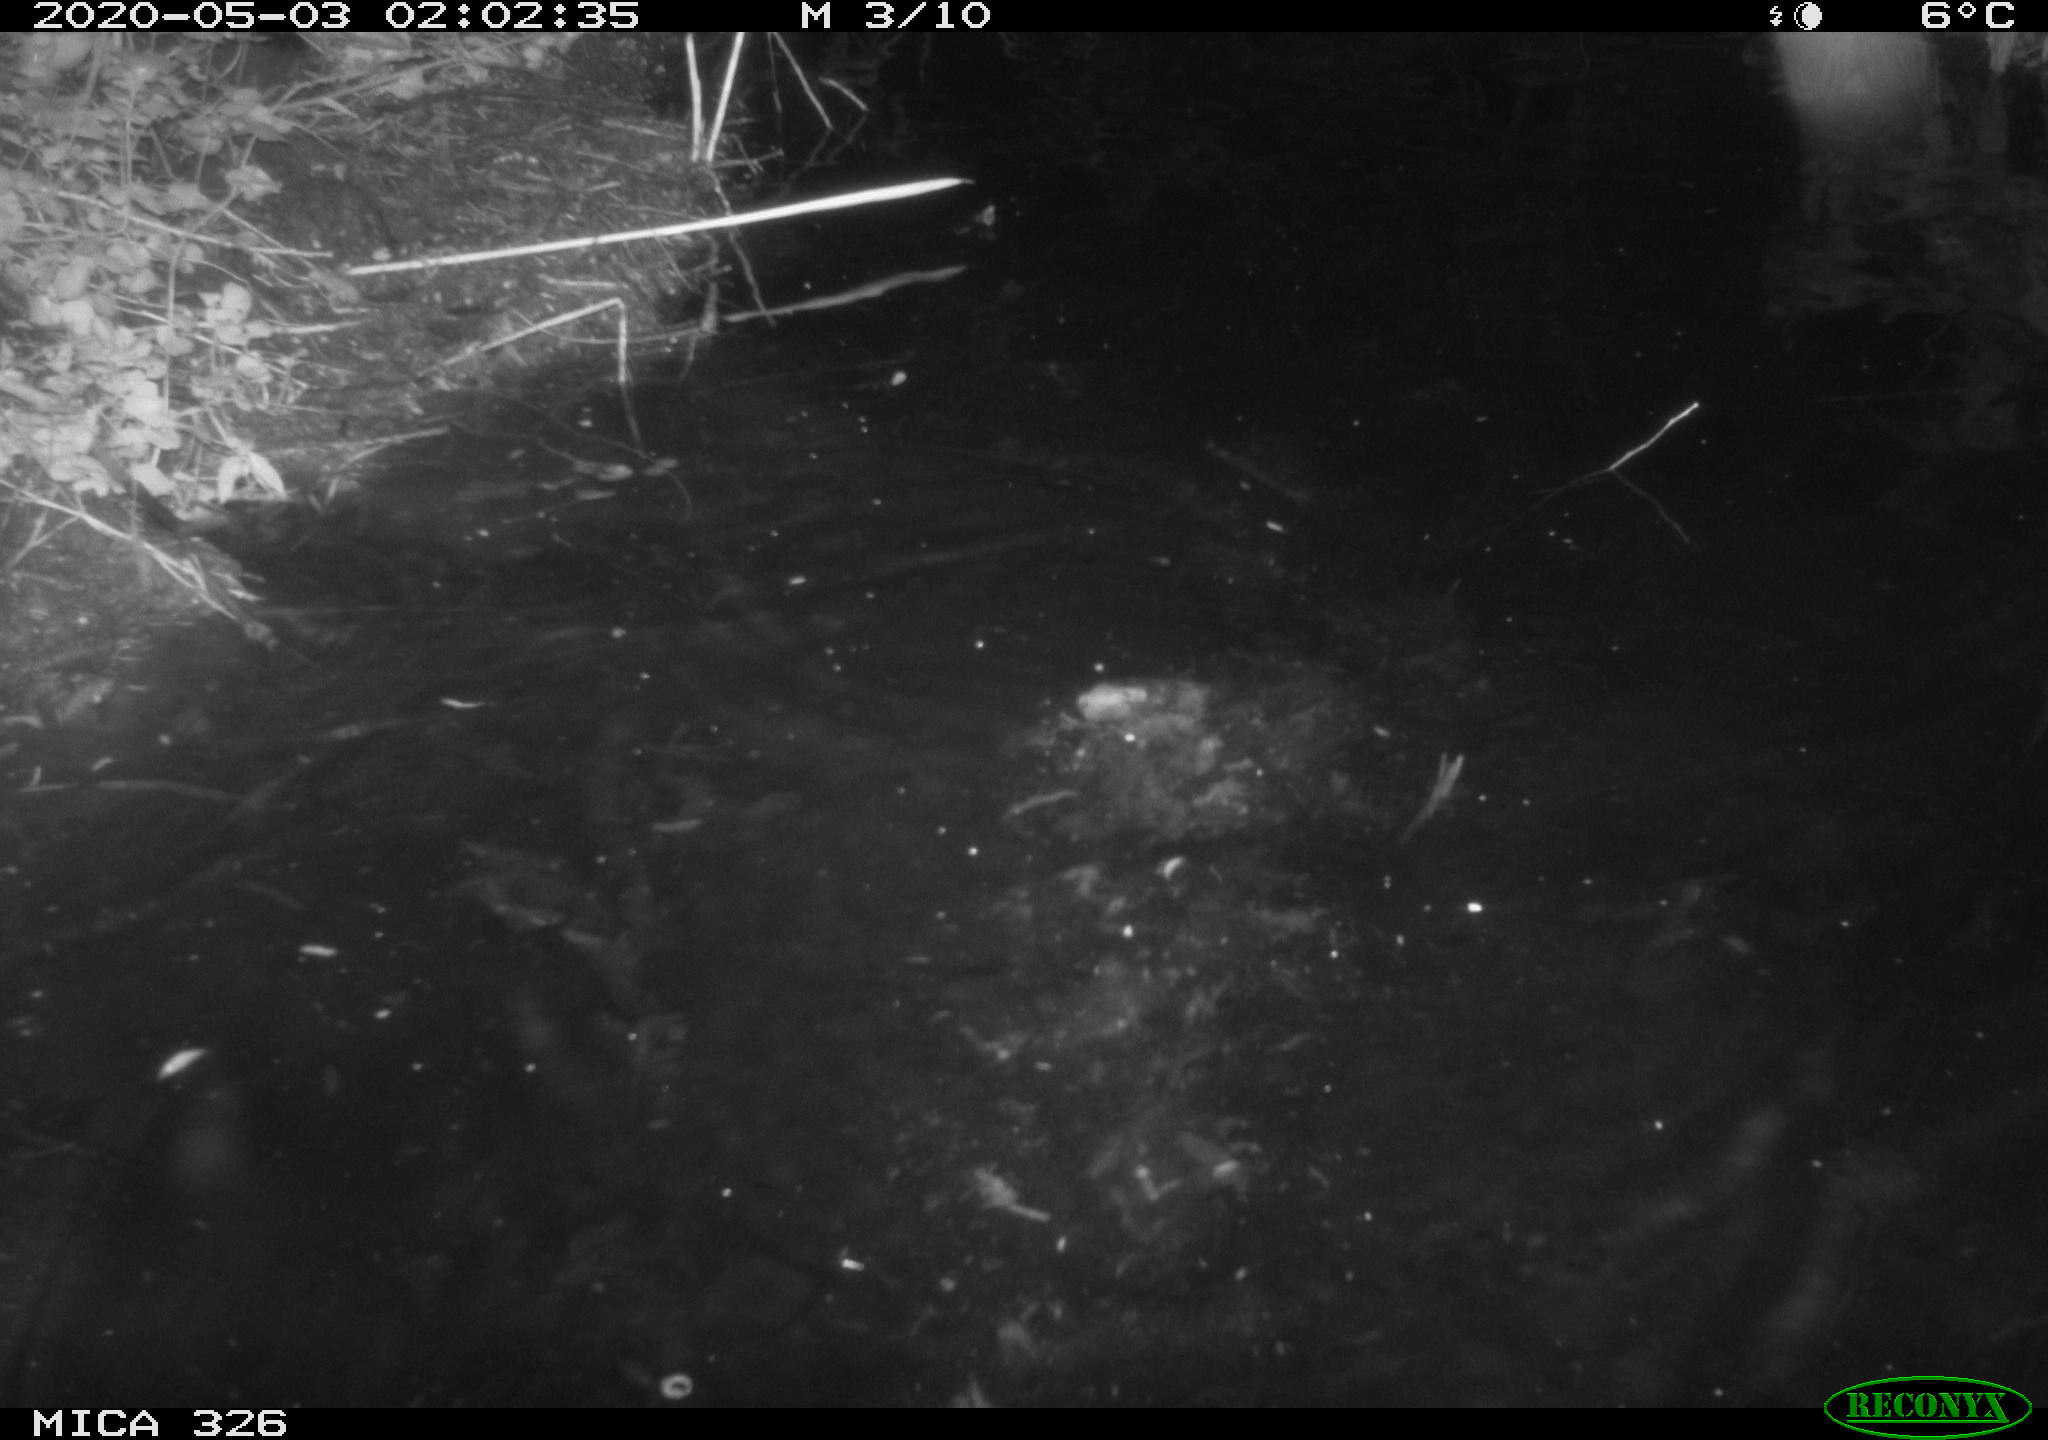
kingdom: Animalia
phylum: Chordata
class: Mammalia
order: Rodentia
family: Myocastoridae
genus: Myocastor
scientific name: Myocastor coypus
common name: Coypu
